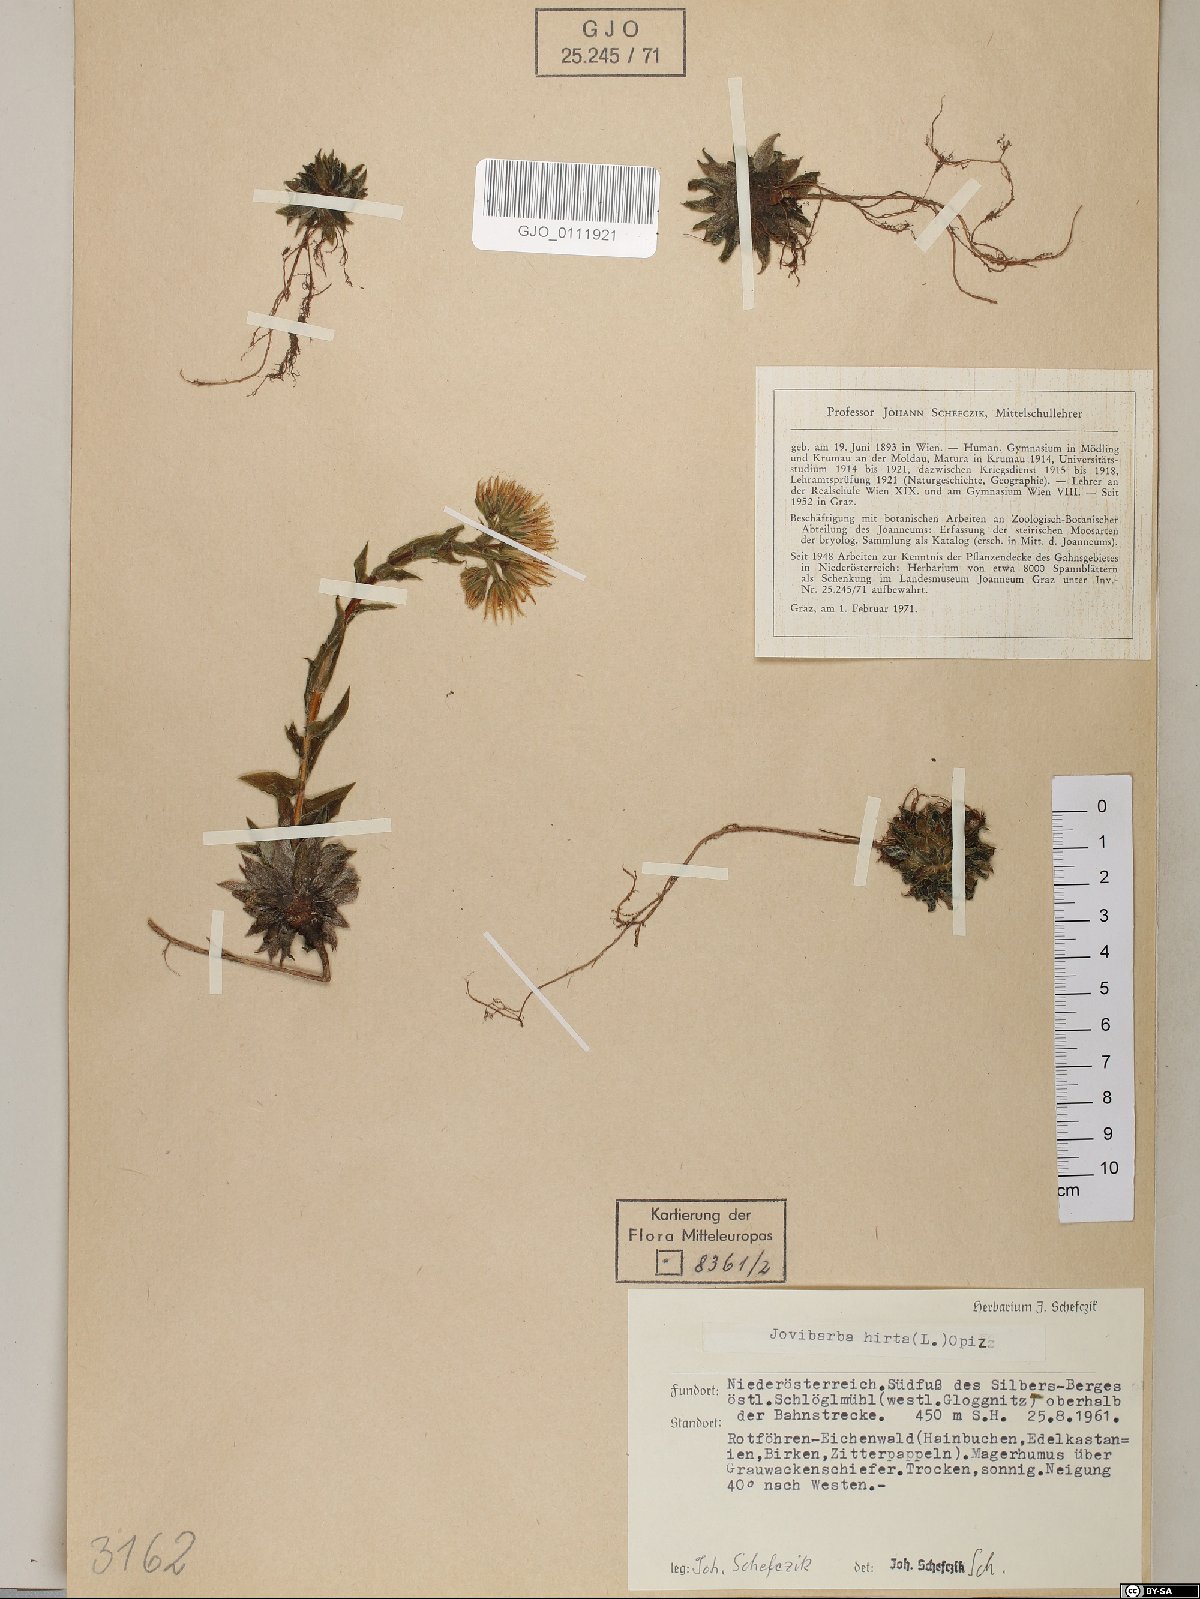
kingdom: Plantae
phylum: Tracheophyta
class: Magnoliopsida
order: Saxifragales
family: Crassulaceae
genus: Sempervivum
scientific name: Sempervivum globiferum
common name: Rolling hen-and-chicks
